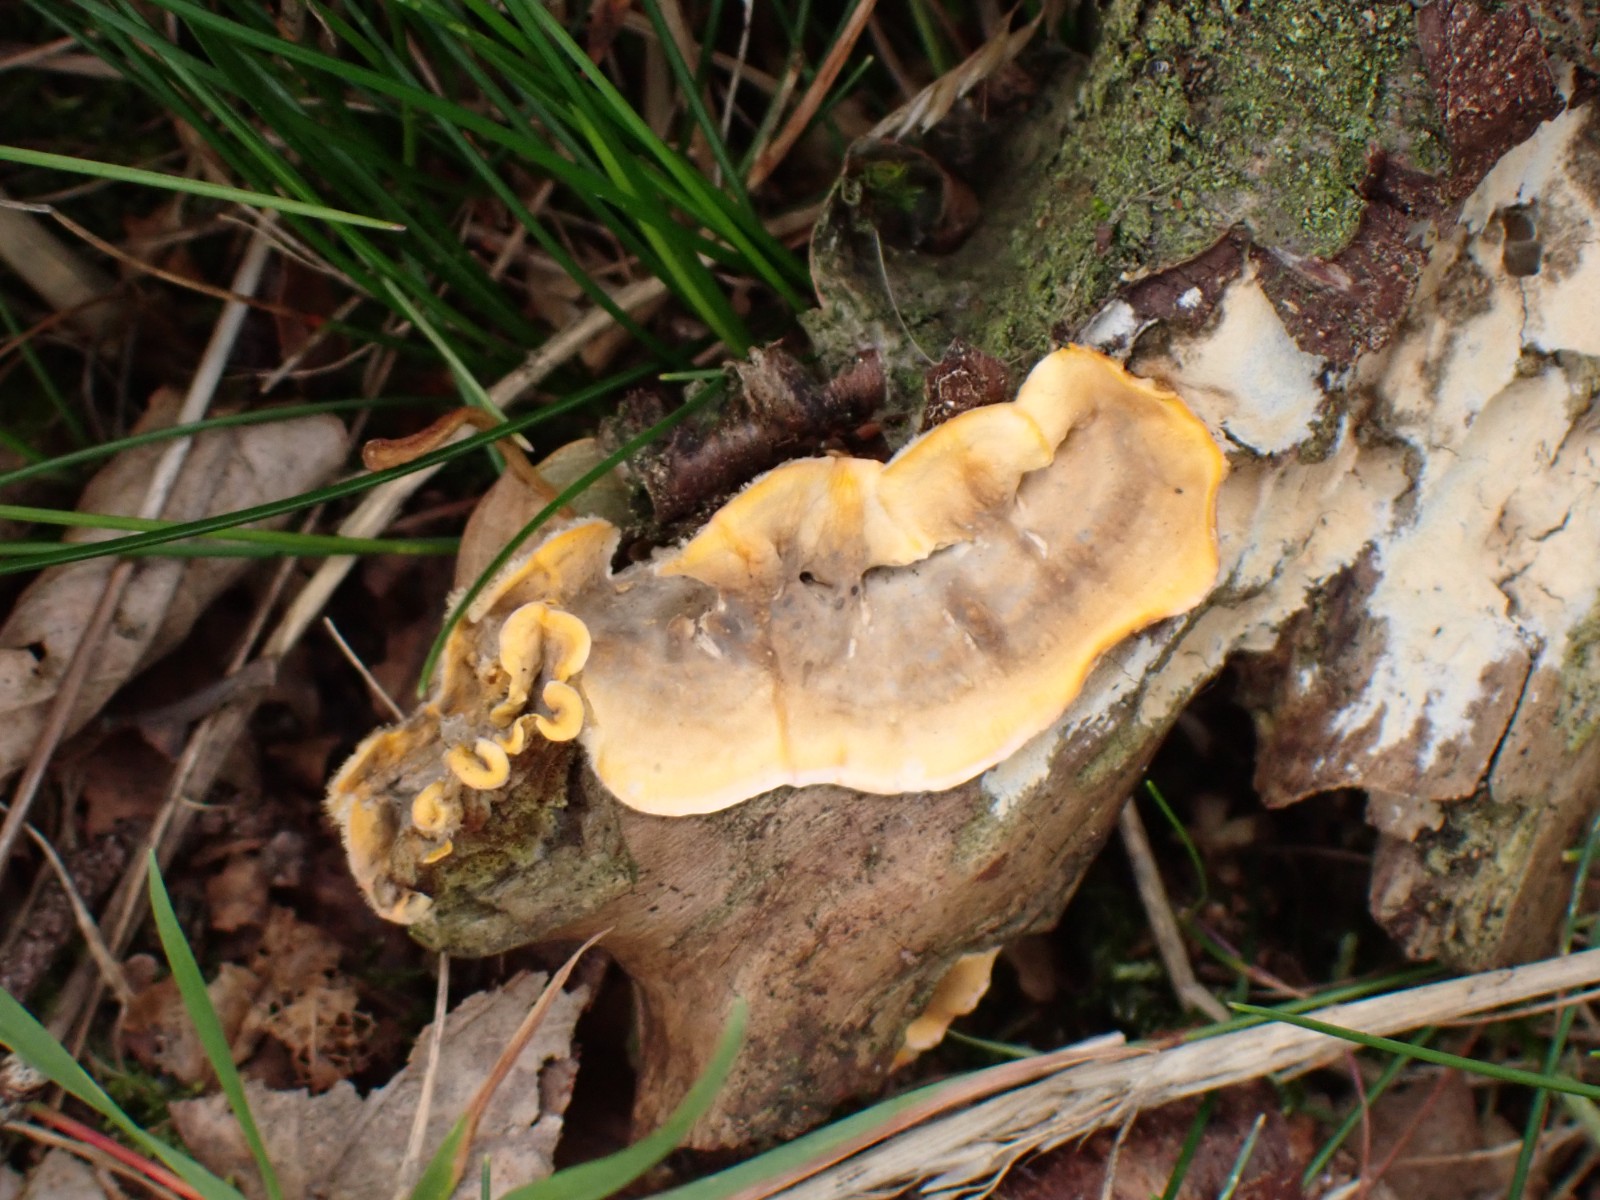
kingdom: Fungi
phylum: Basidiomycota
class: Agaricomycetes
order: Russulales
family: Stereaceae
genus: Stereum
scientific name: Stereum hirsutum
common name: håret lædersvamp
